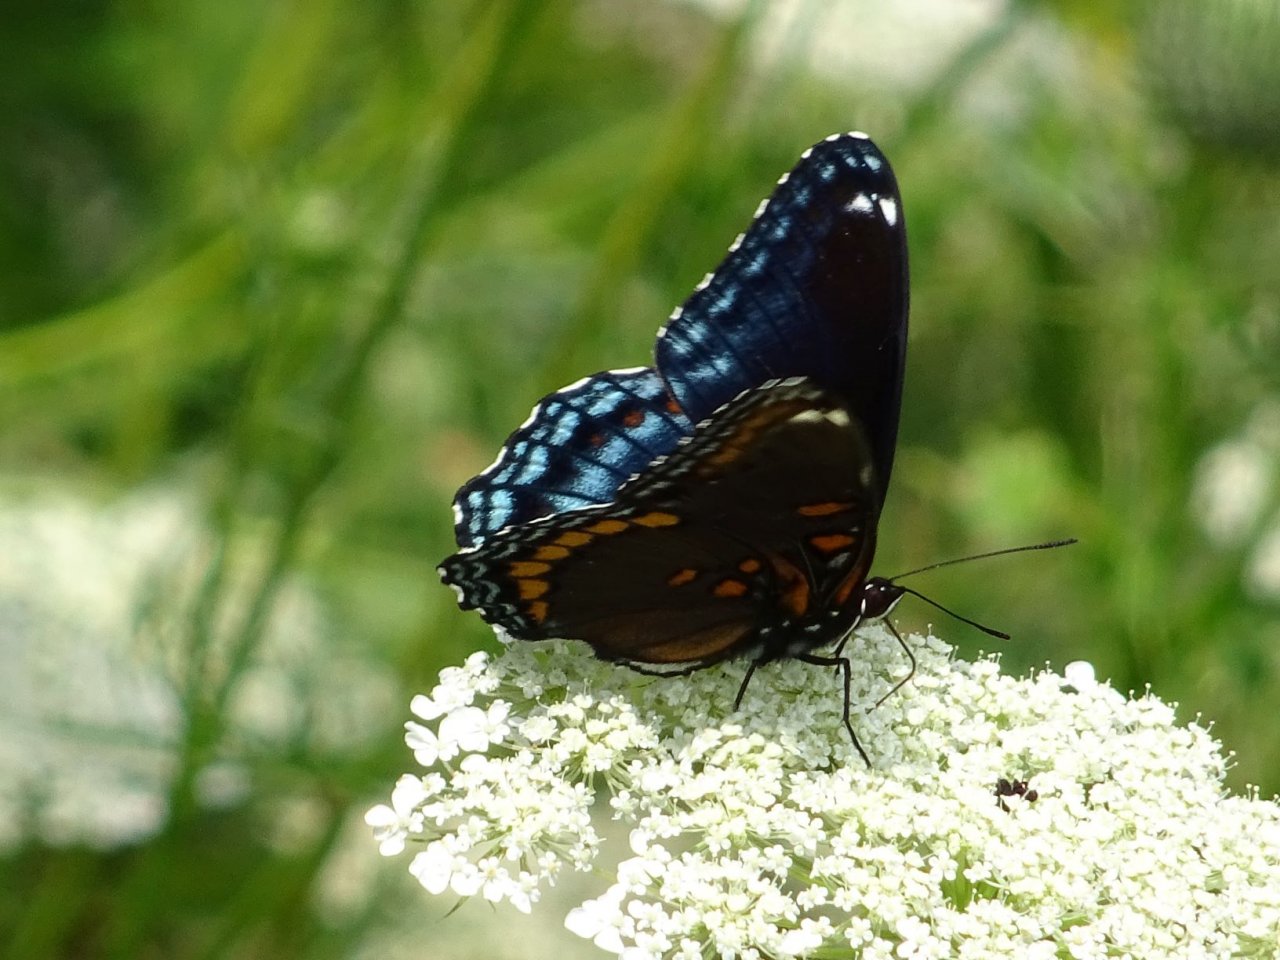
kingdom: Animalia
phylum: Arthropoda
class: Insecta
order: Lepidoptera
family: Nymphalidae
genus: Limenitis
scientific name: Limenitis astyanax
